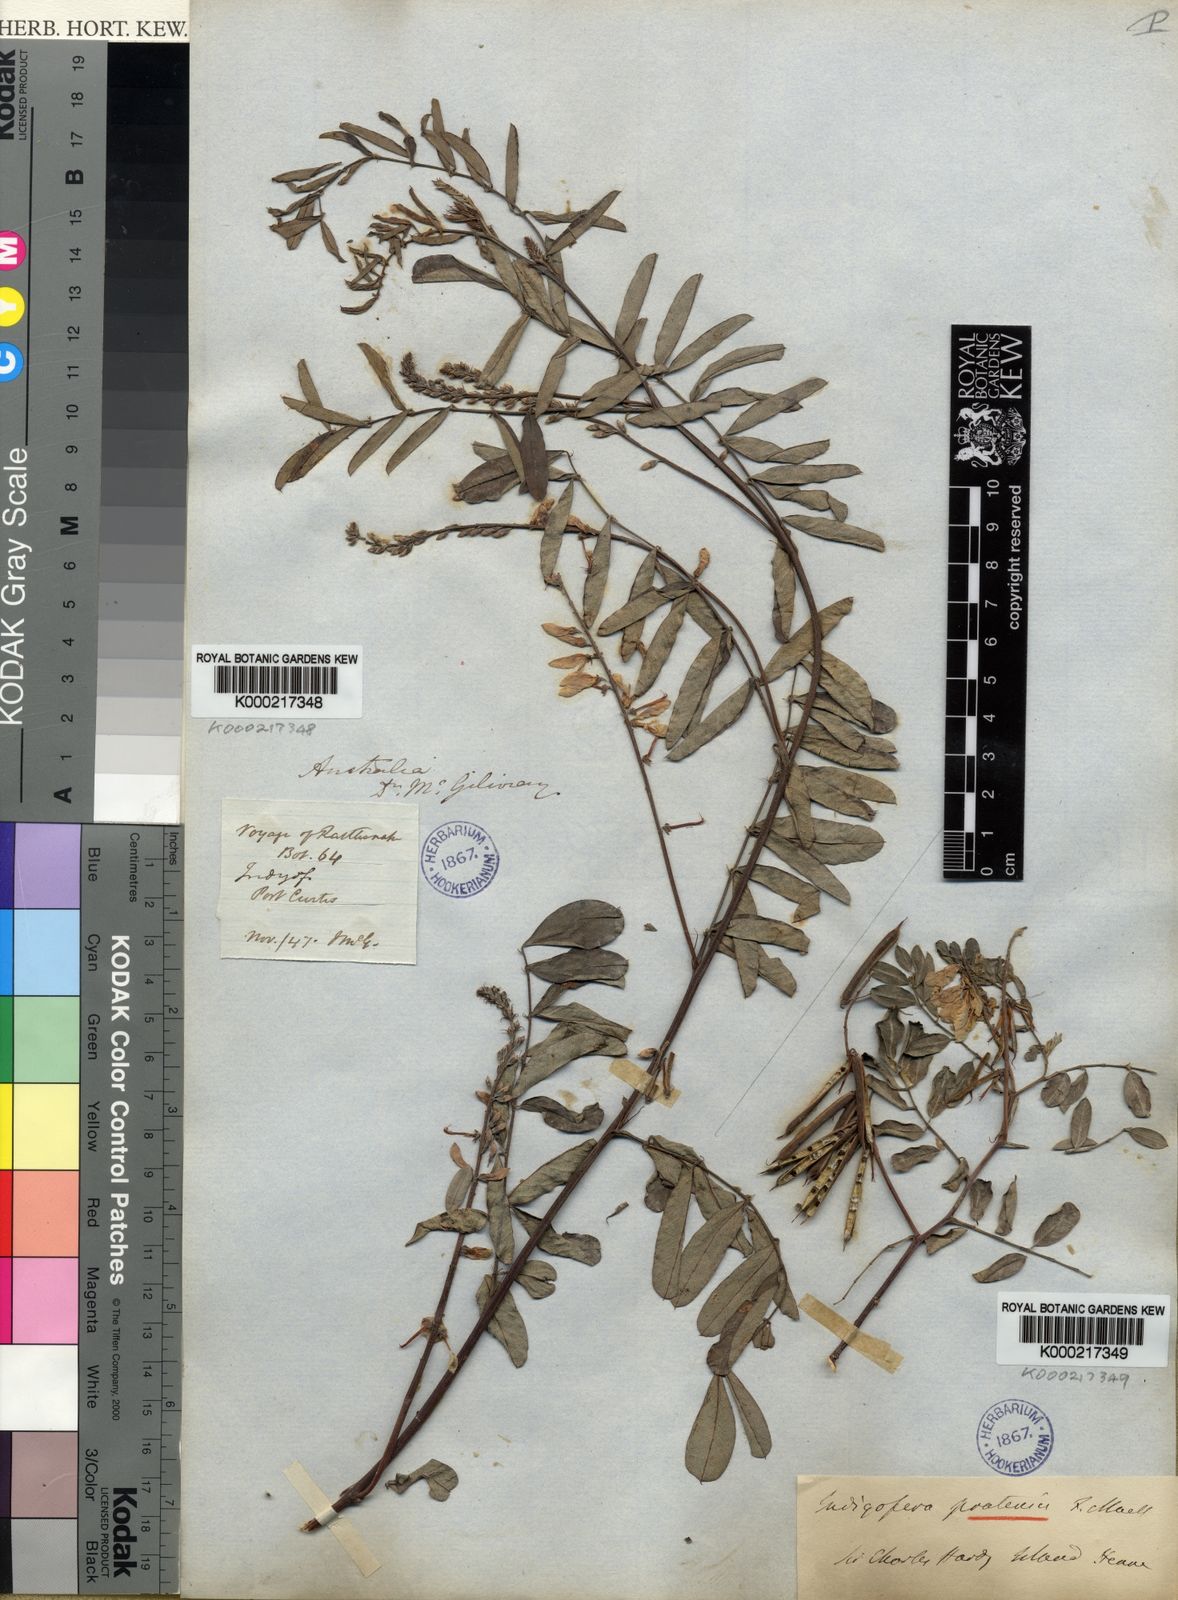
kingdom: Plantae
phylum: Tracheophyta
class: Magnoliopsida
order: Fabales
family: Fabaceae
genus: Indigofera
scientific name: Indigofera pratensis
